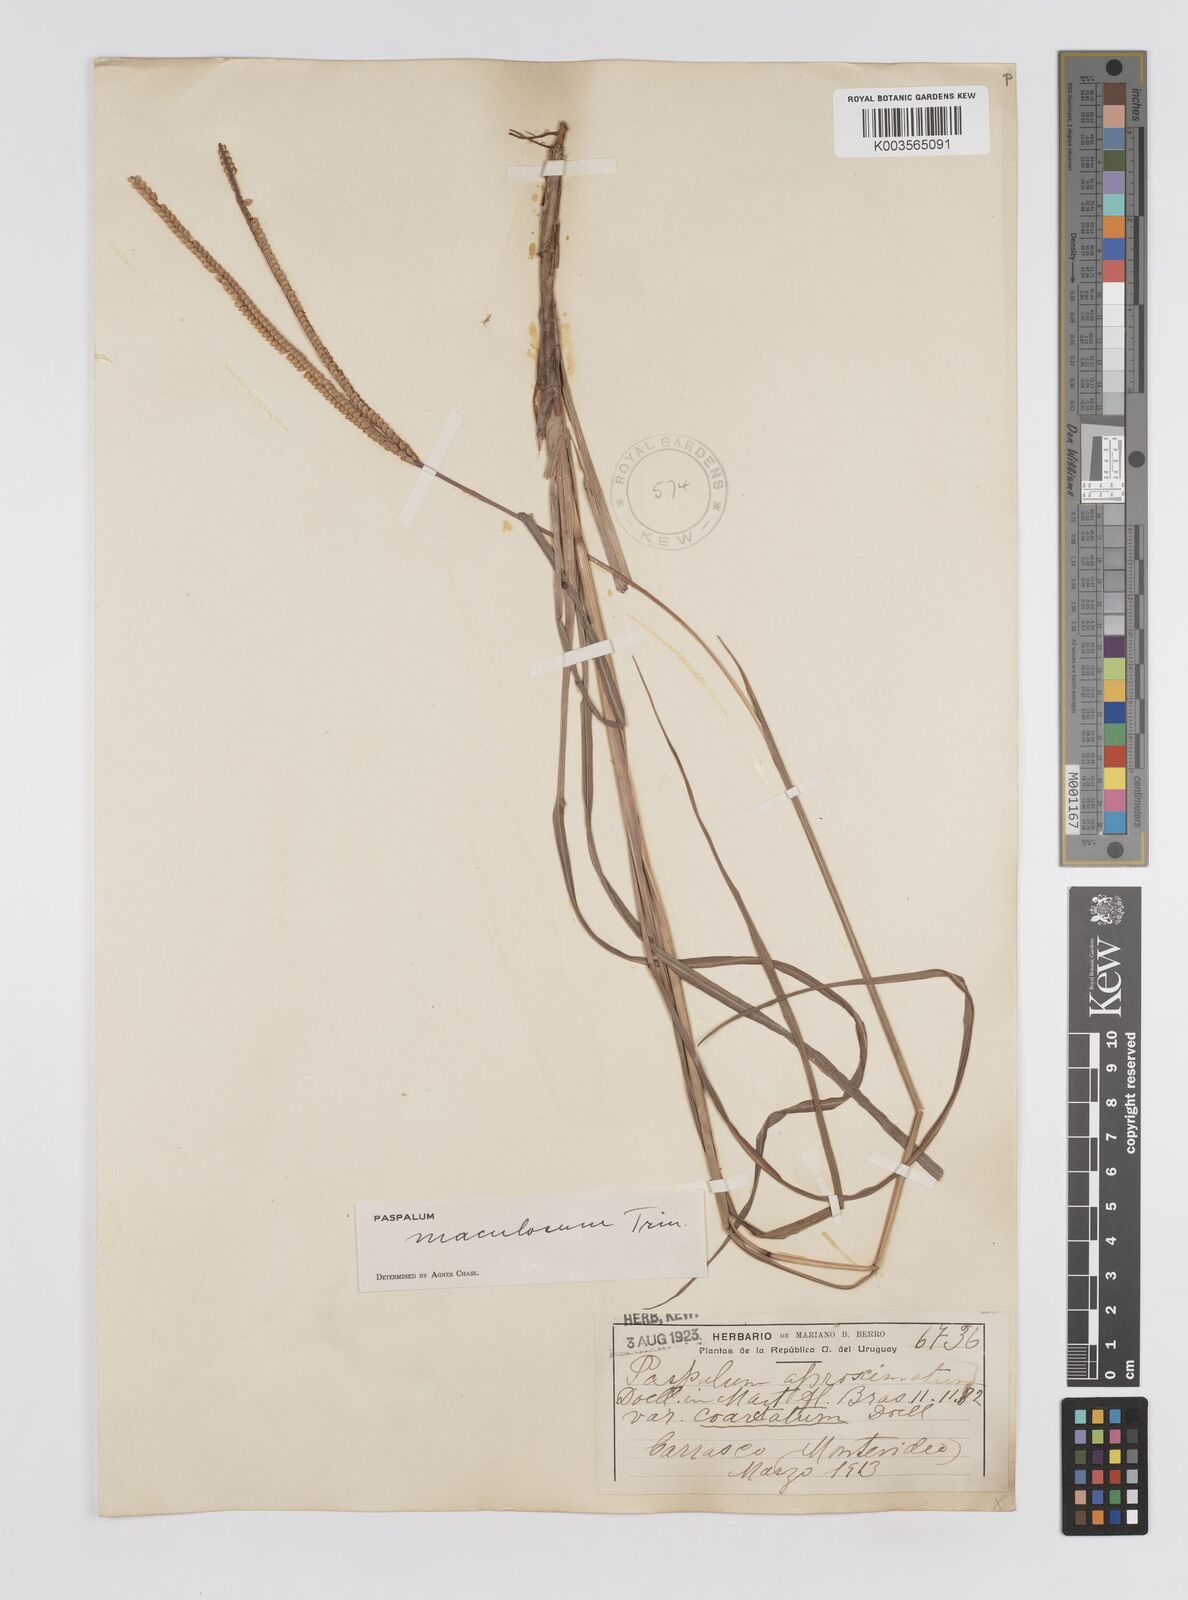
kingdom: Plantae
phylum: Tracheophyta
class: Liliopsida
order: Poales
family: Poaceae
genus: Paspalum
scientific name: Paspalum maculosum
